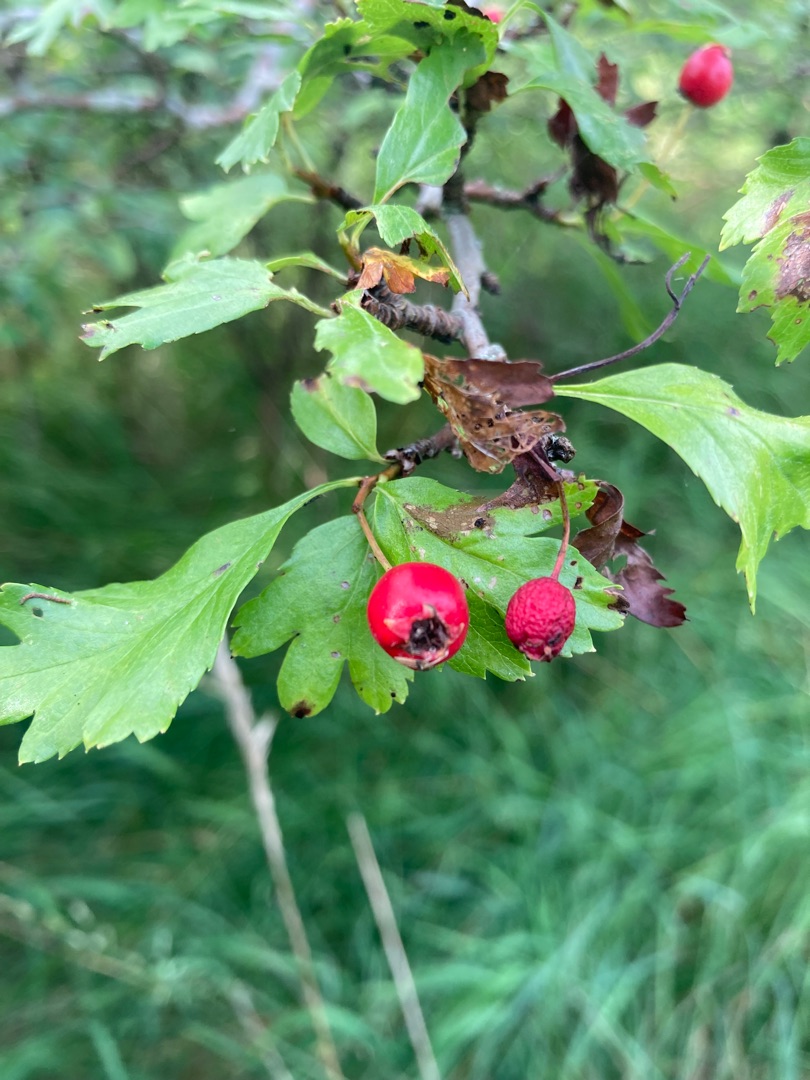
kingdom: Plantae
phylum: Tracheophyta
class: Magnoliopsida
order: Rosales
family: Rosaceae
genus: Crataegus
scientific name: Crataegus monogyna
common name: Engriflet hvidtjørn
